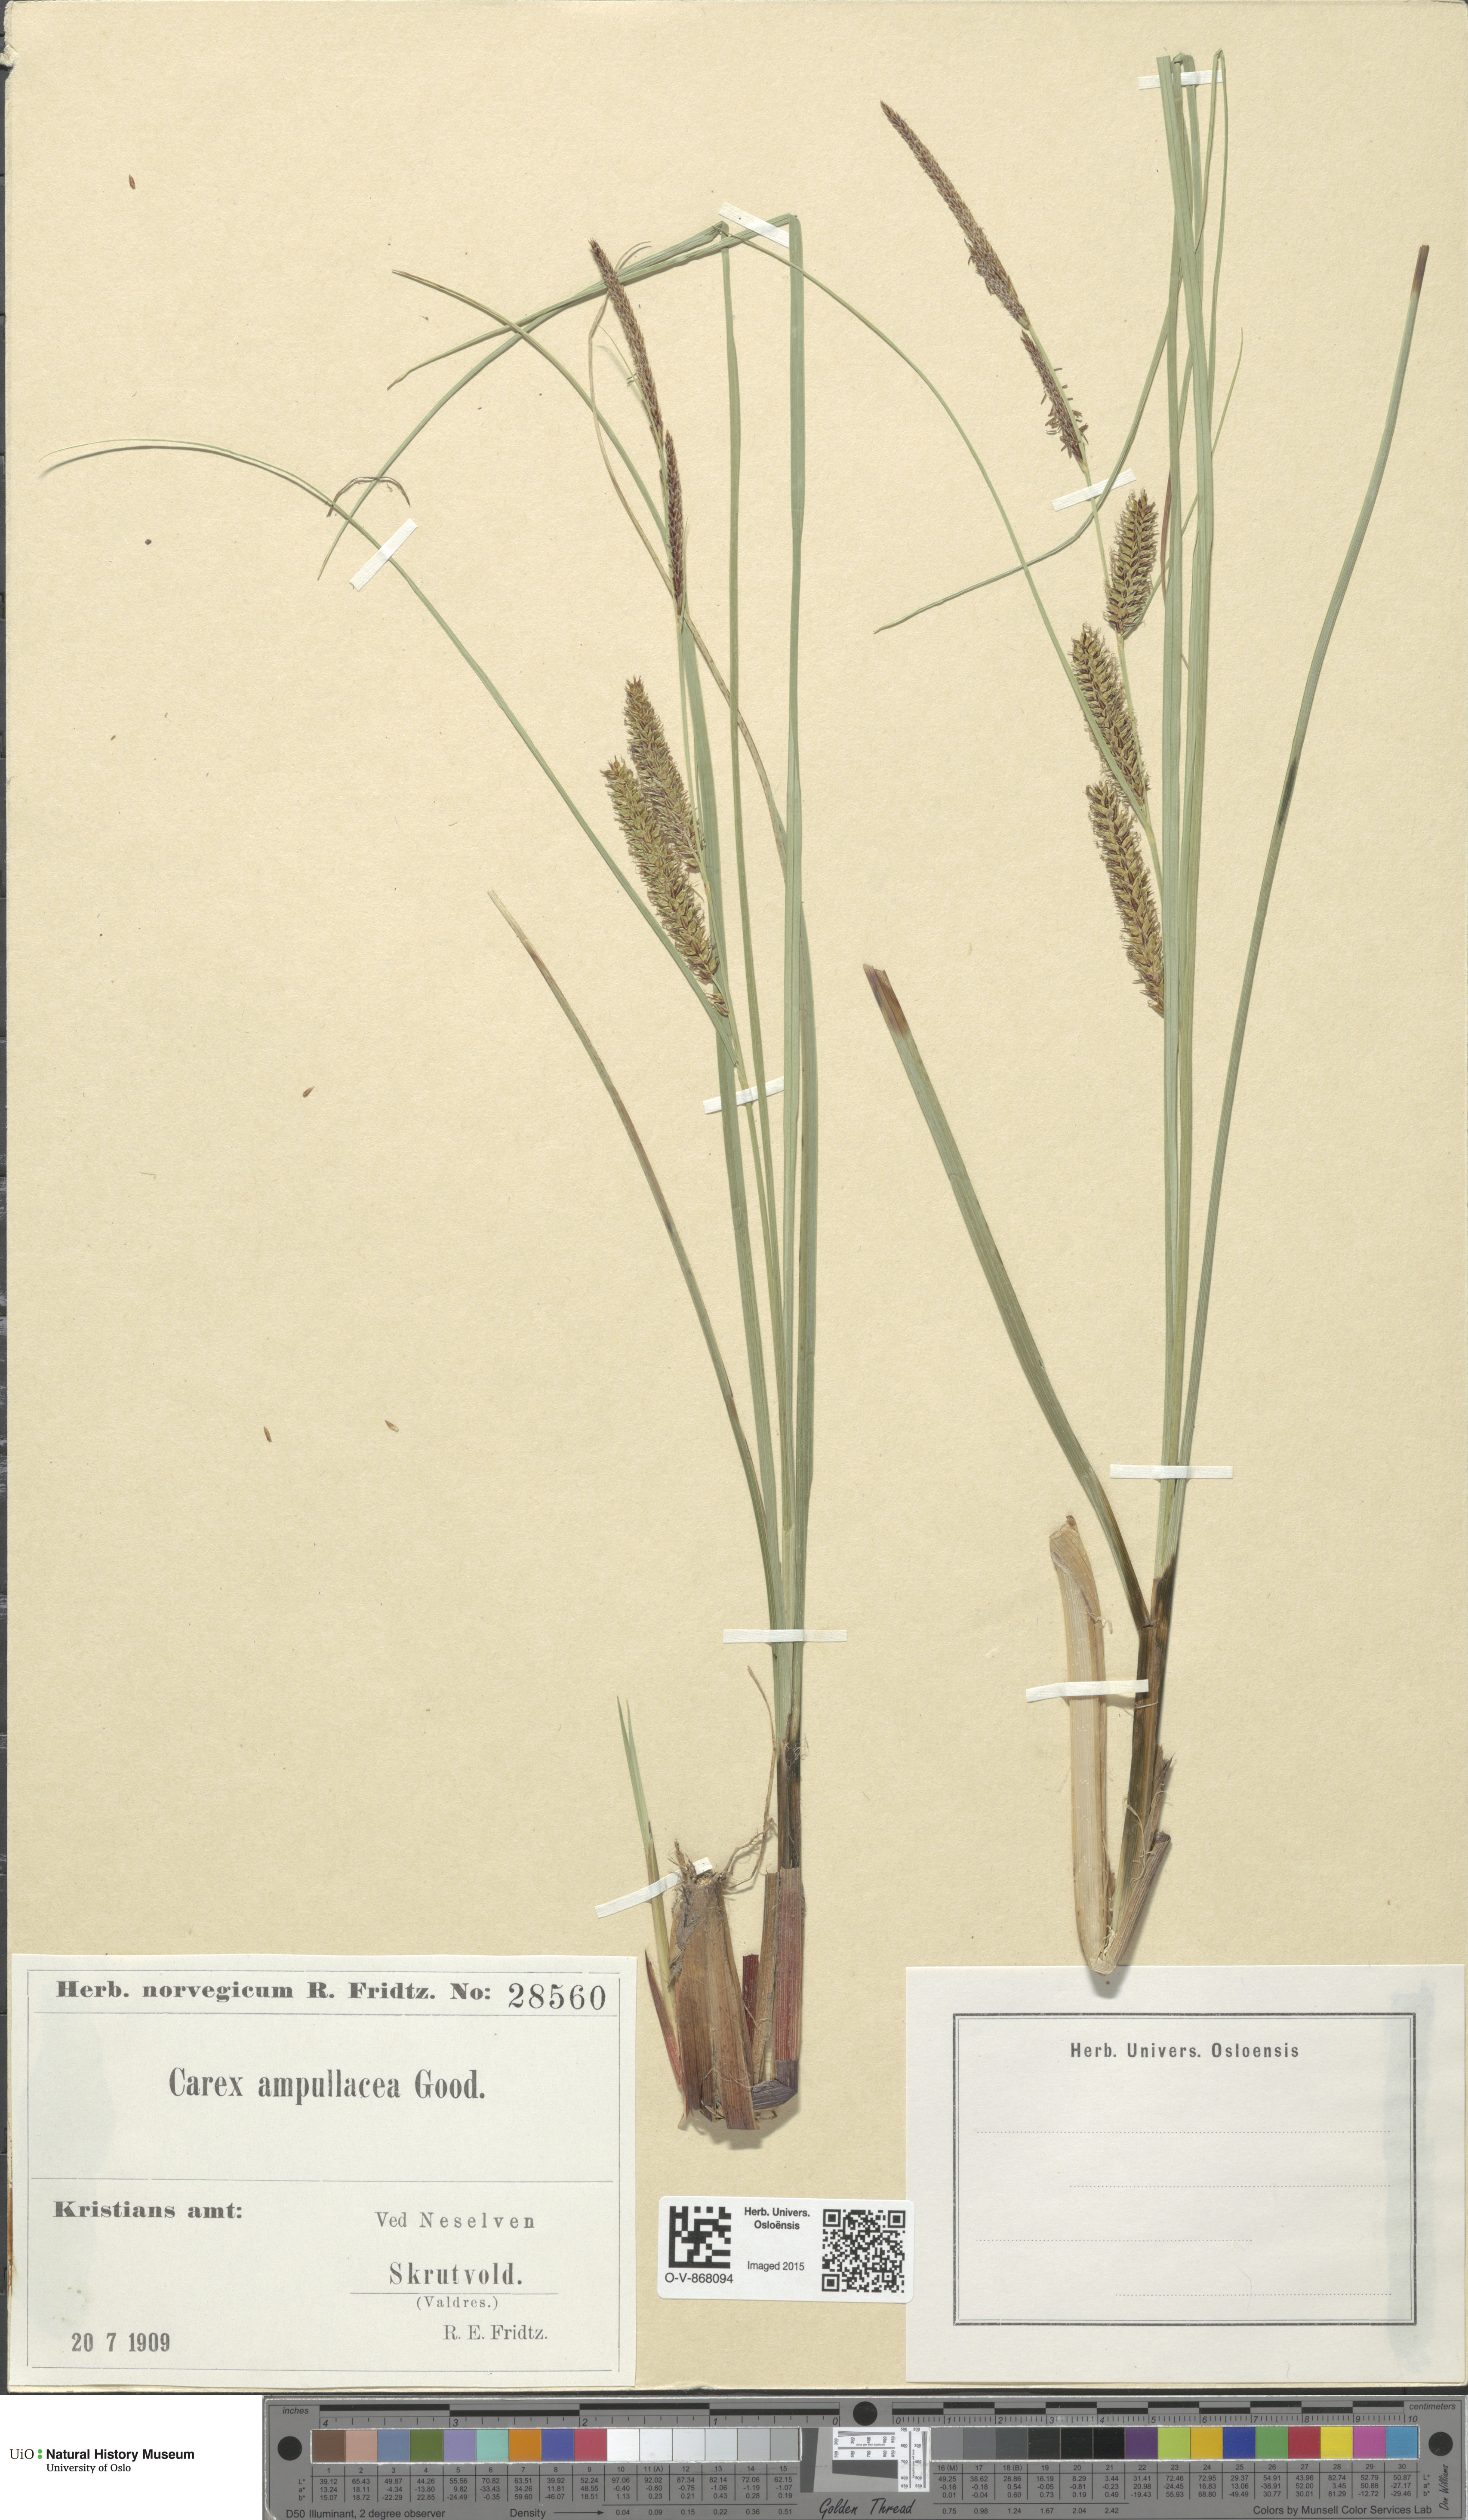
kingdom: Plantae
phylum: Tracheophyta
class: Liliopsida
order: Poales
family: Cyperaceae
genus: Carex
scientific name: Carex rostrata
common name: Bottle sedge
